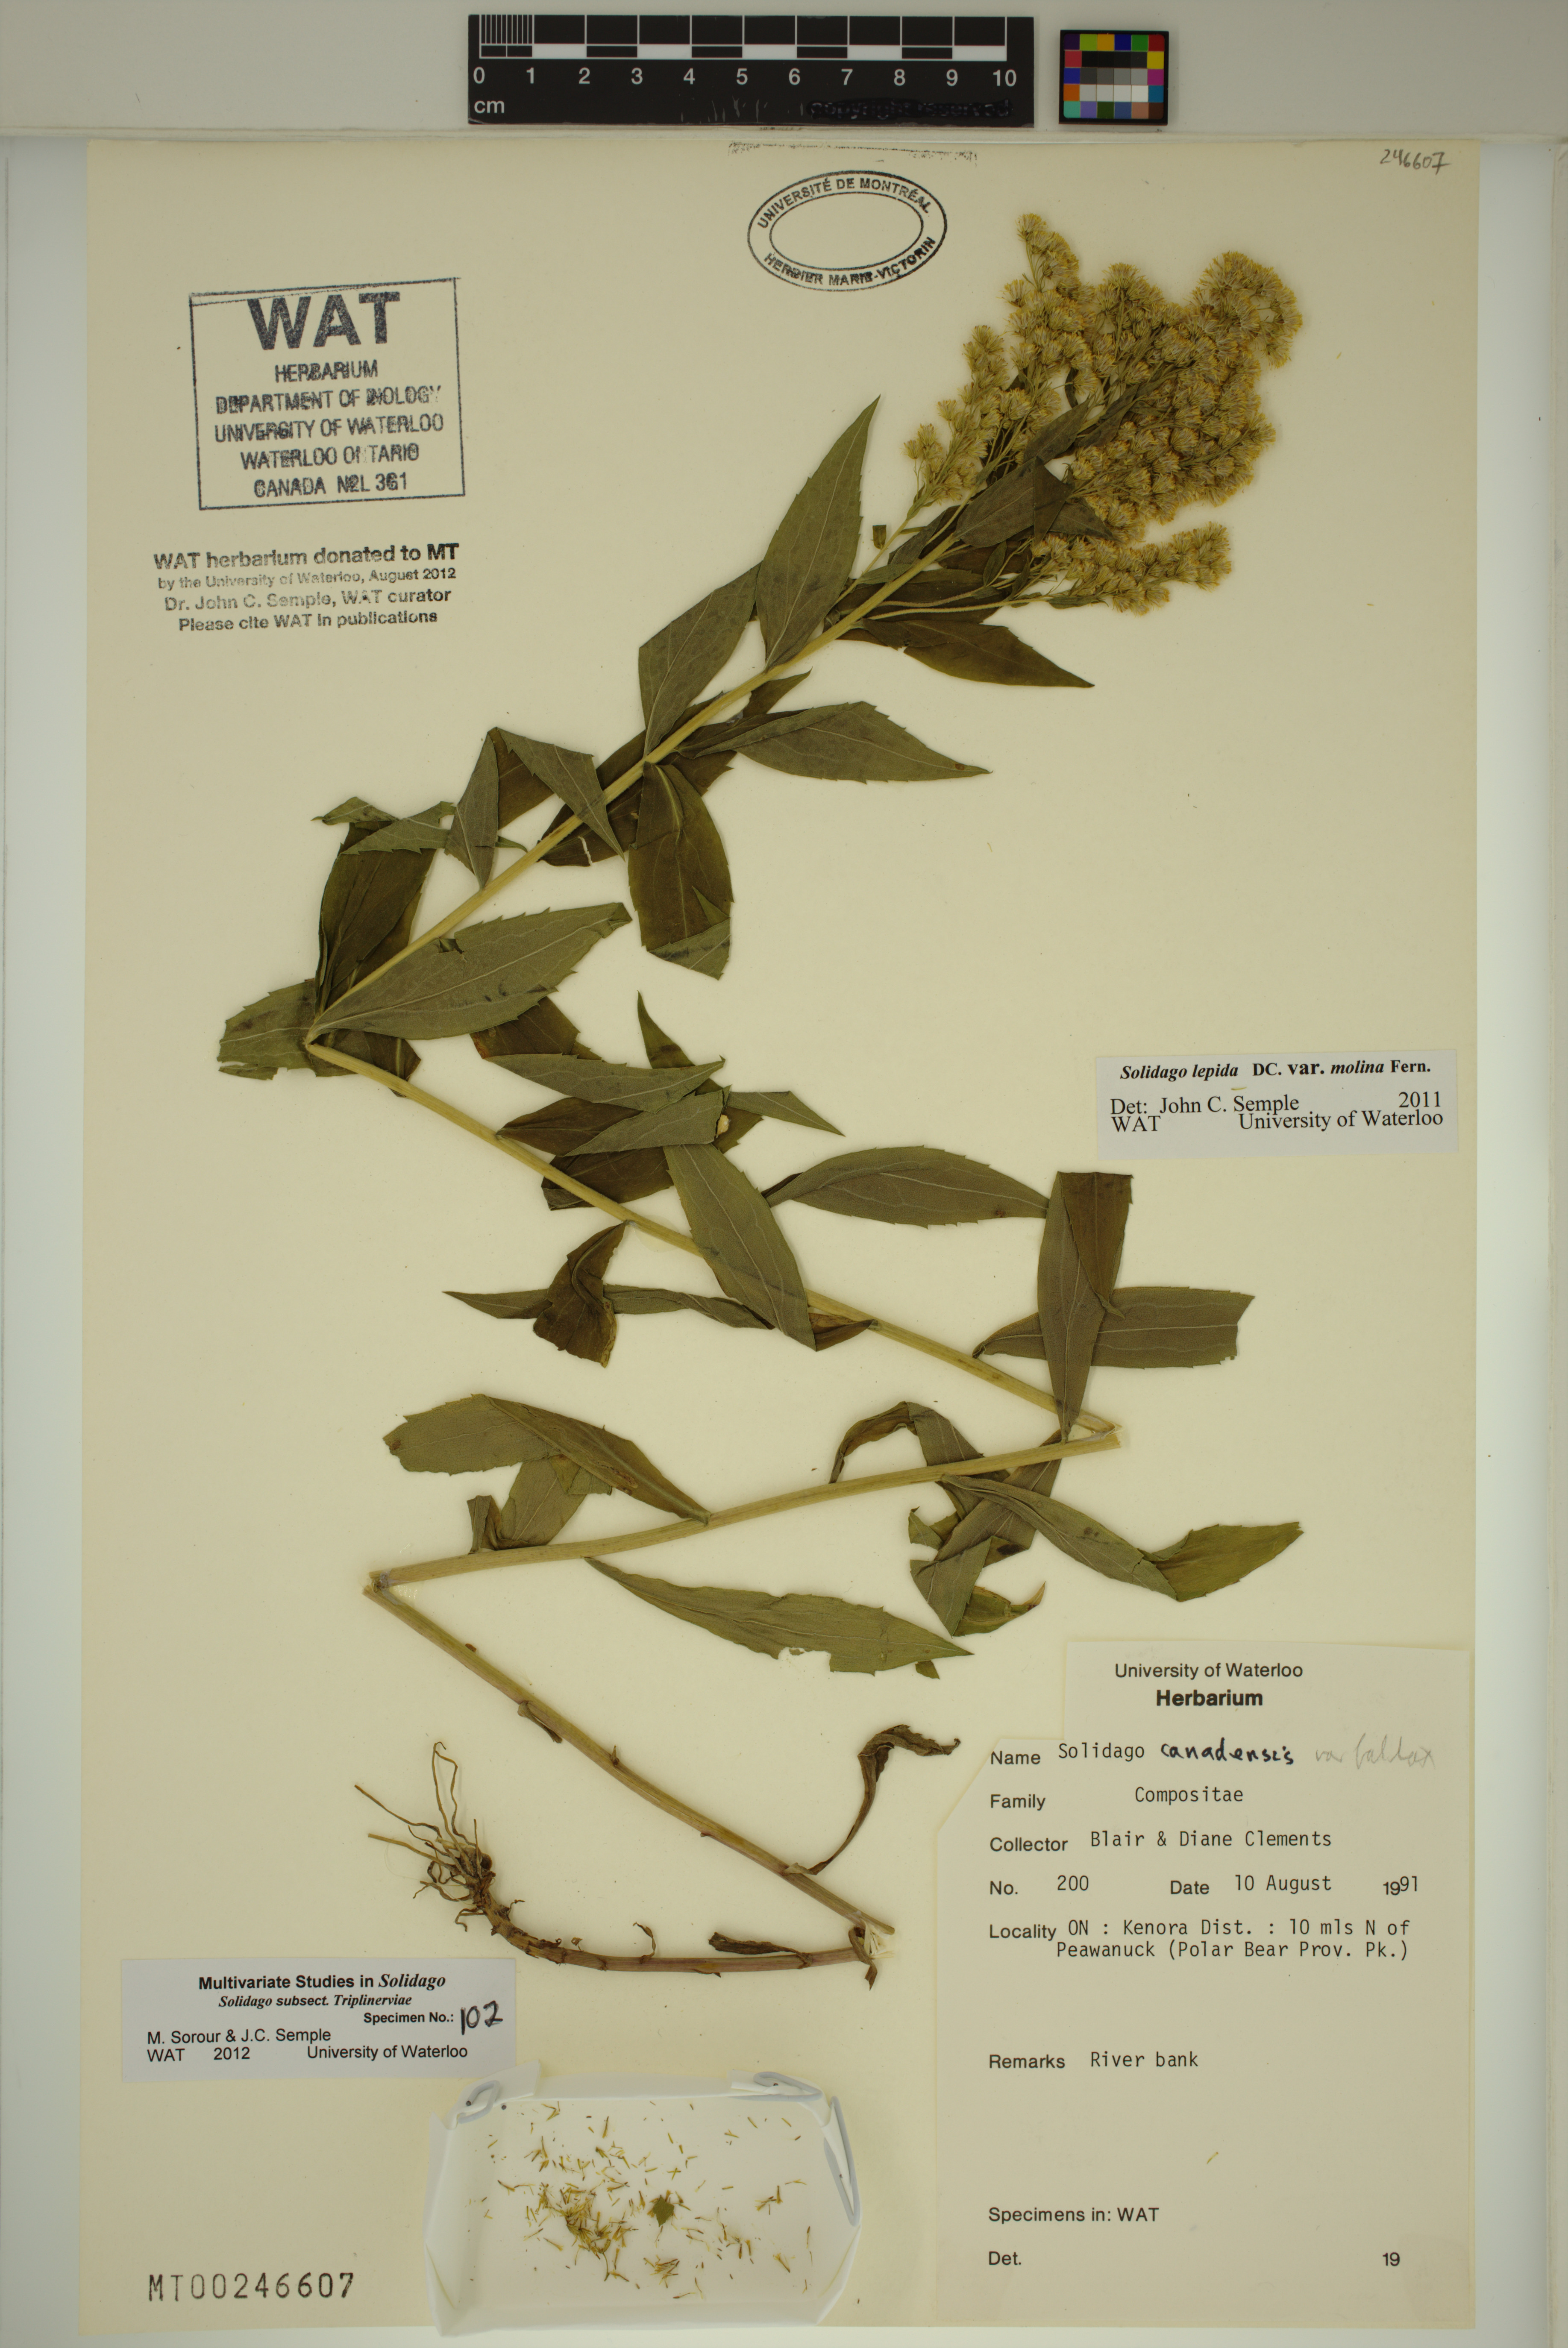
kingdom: Plantae
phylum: Tracheophyta
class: Magnoliopsida
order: Asterales
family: Asteraceae
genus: Solidago
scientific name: Solidago fallax
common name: Big-toothed canada goldenrod
